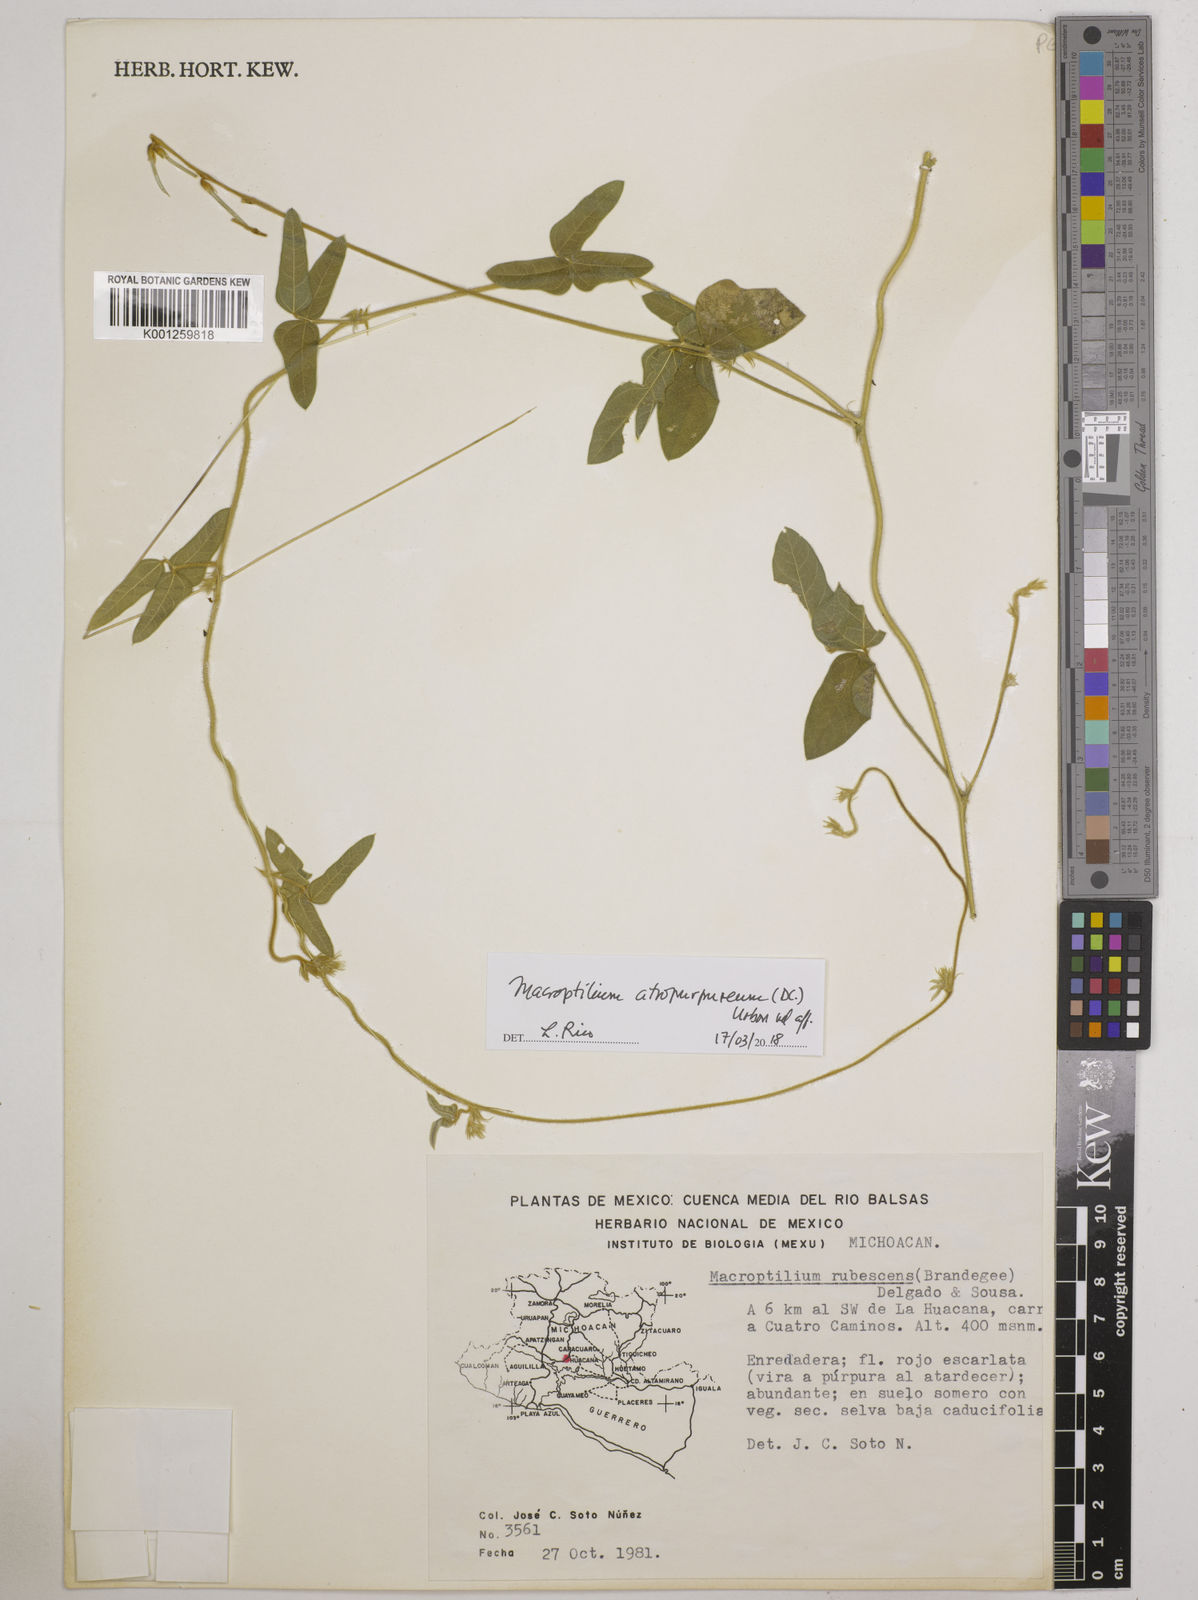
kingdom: Plantae
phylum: Tracheophyta
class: Magnoliopsida
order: Fabales
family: Fabaceae
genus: Macroptilium
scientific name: Macroptilium atropurpureum
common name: Purple bushbean
